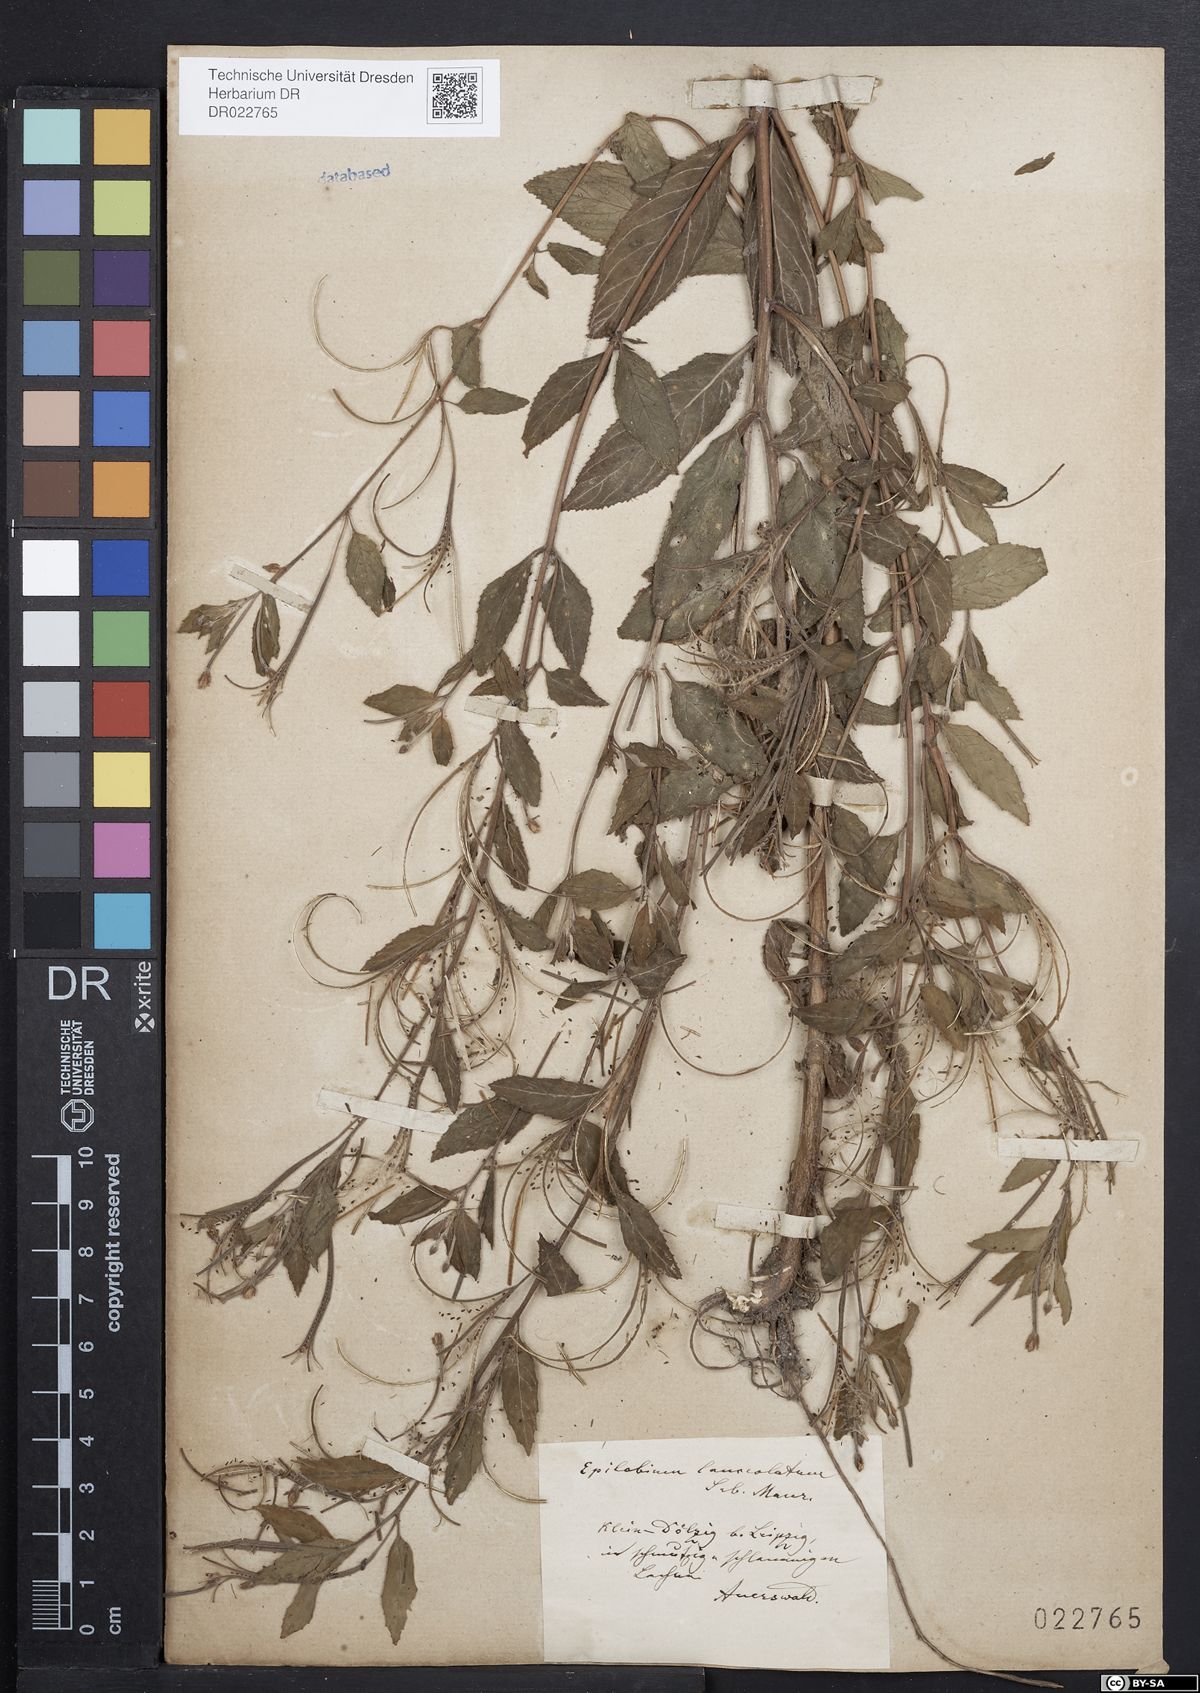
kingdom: Plantae
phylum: Tracheophyta
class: Magnoliopsida
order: Myrtales
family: Onagraceae
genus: Epilobium
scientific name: Epilobium lanceolatum
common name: Spear-leaved willowherb
